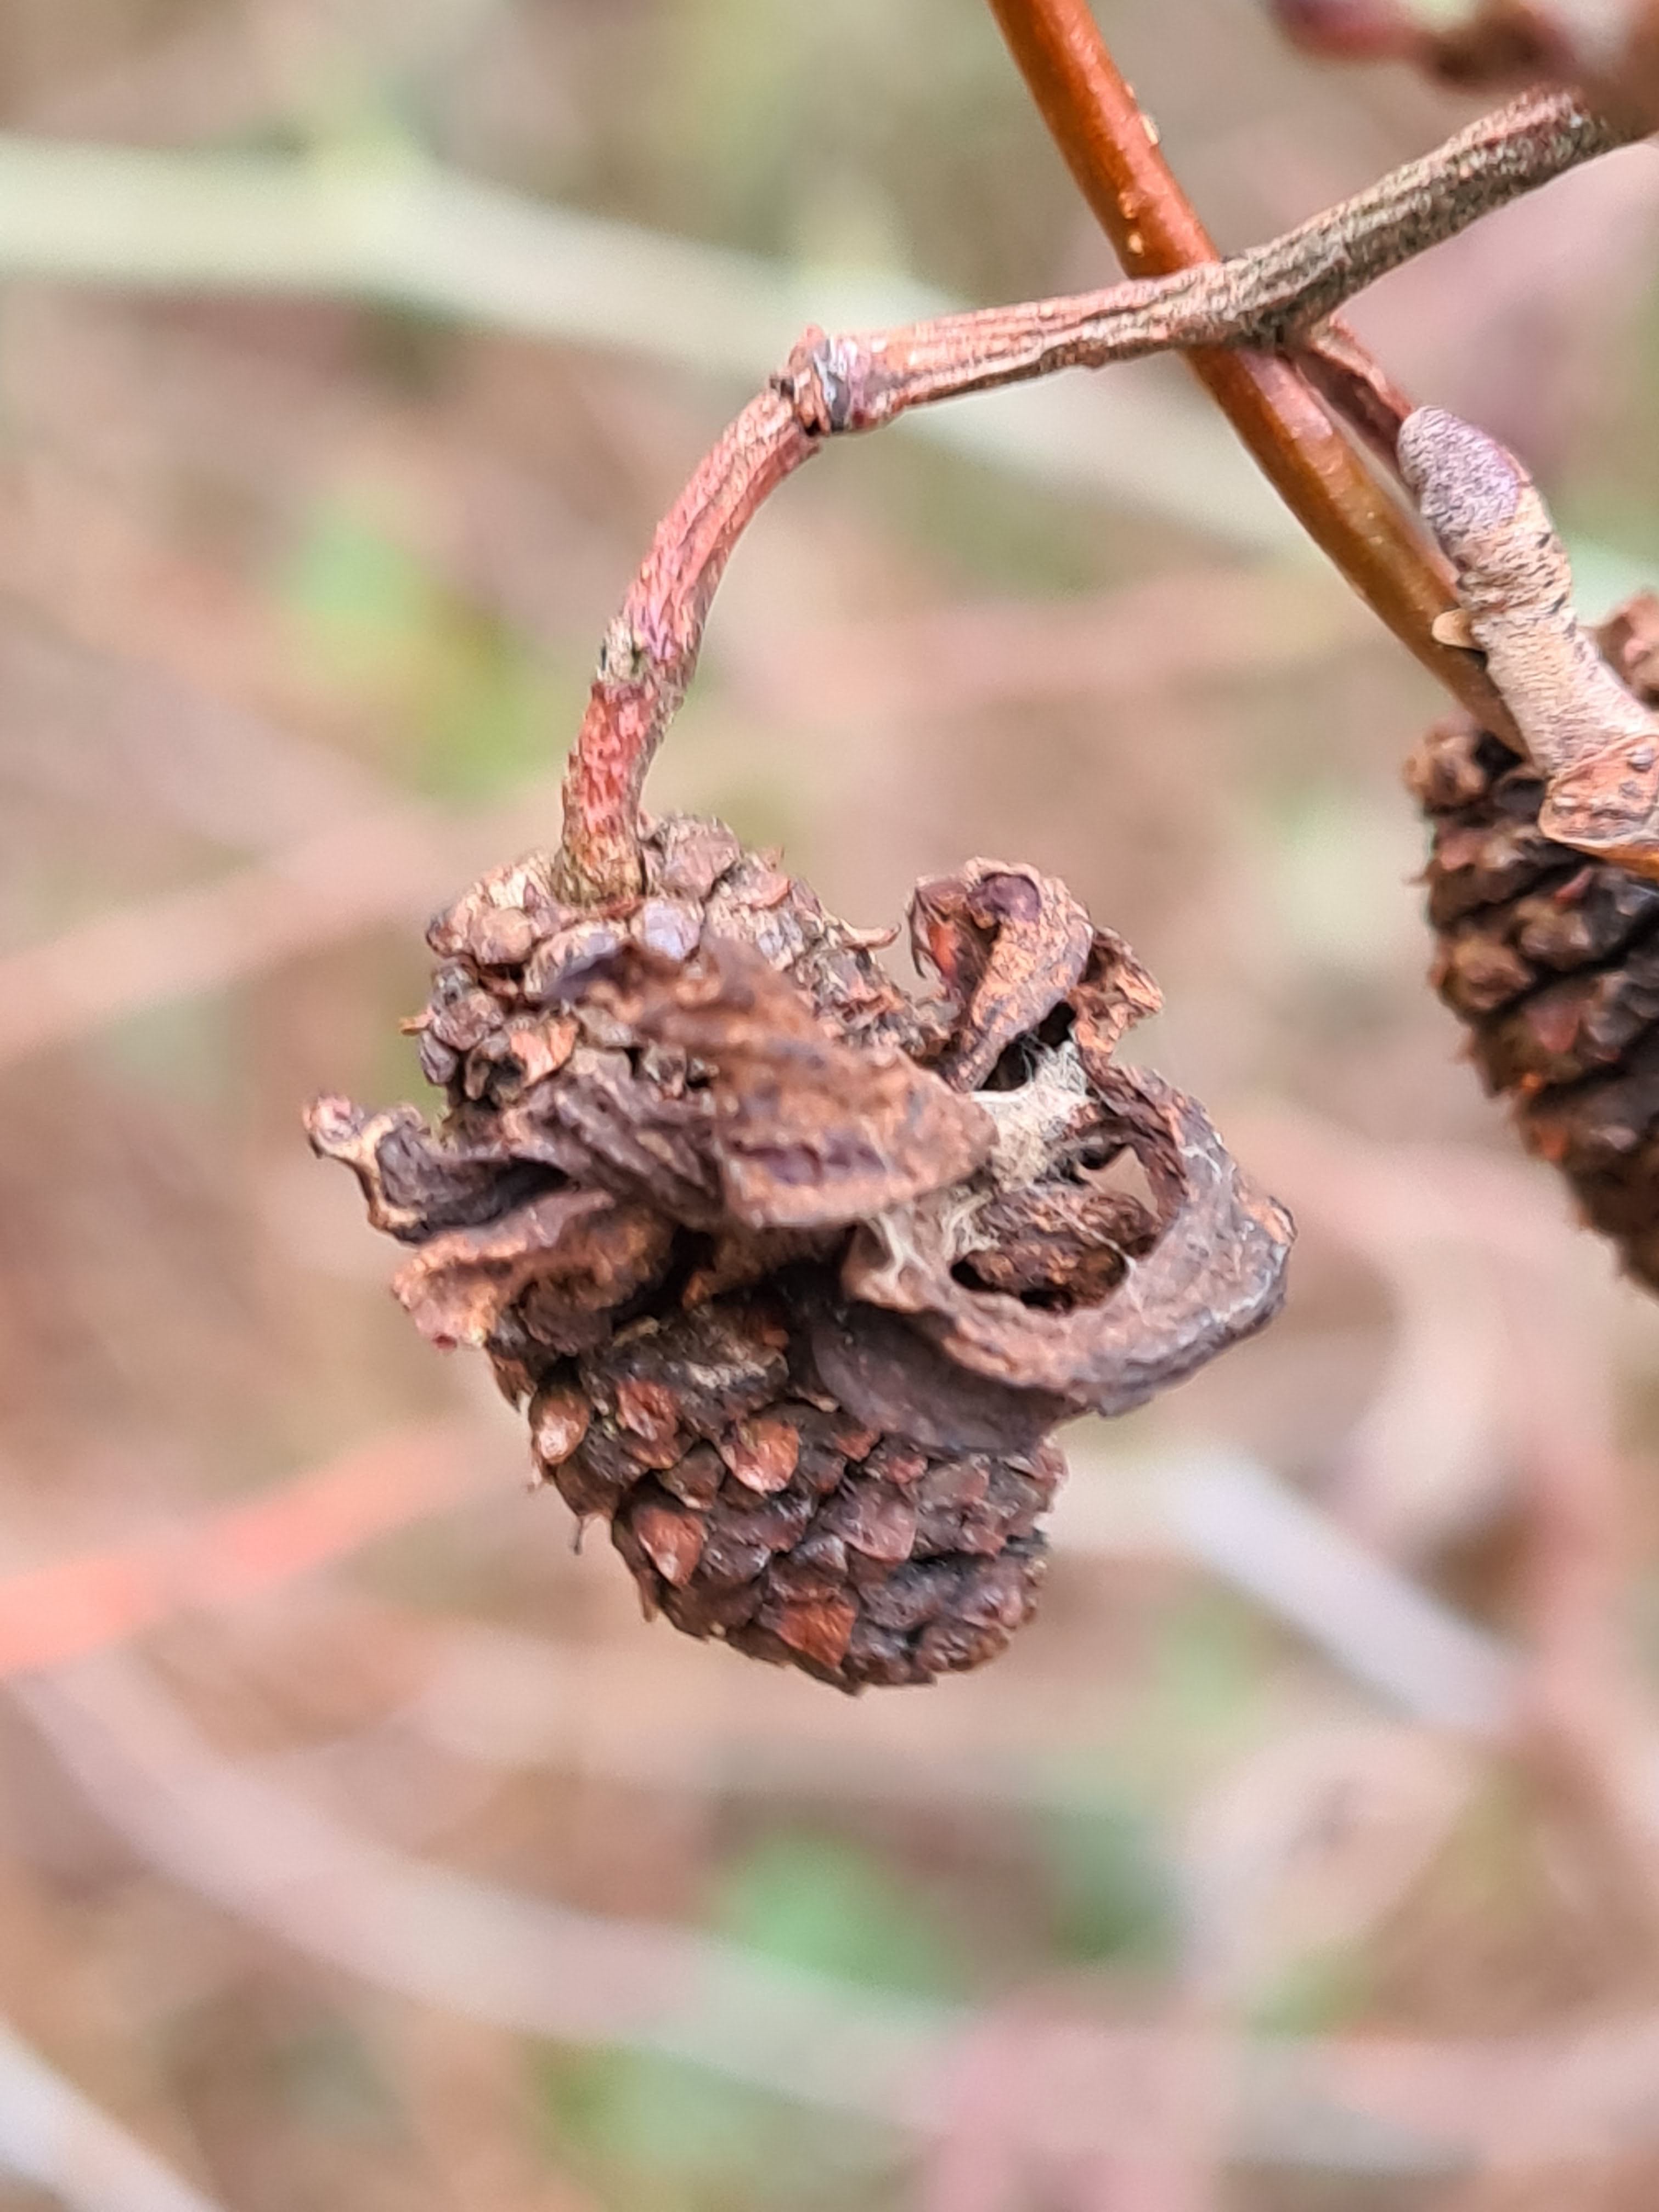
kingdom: Fungi
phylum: Ascomycota
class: Taphrinomycetes
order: Taphrinales
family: Taphrinaceae
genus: Taphrina
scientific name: Taphrina alni
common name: Alder tongue
